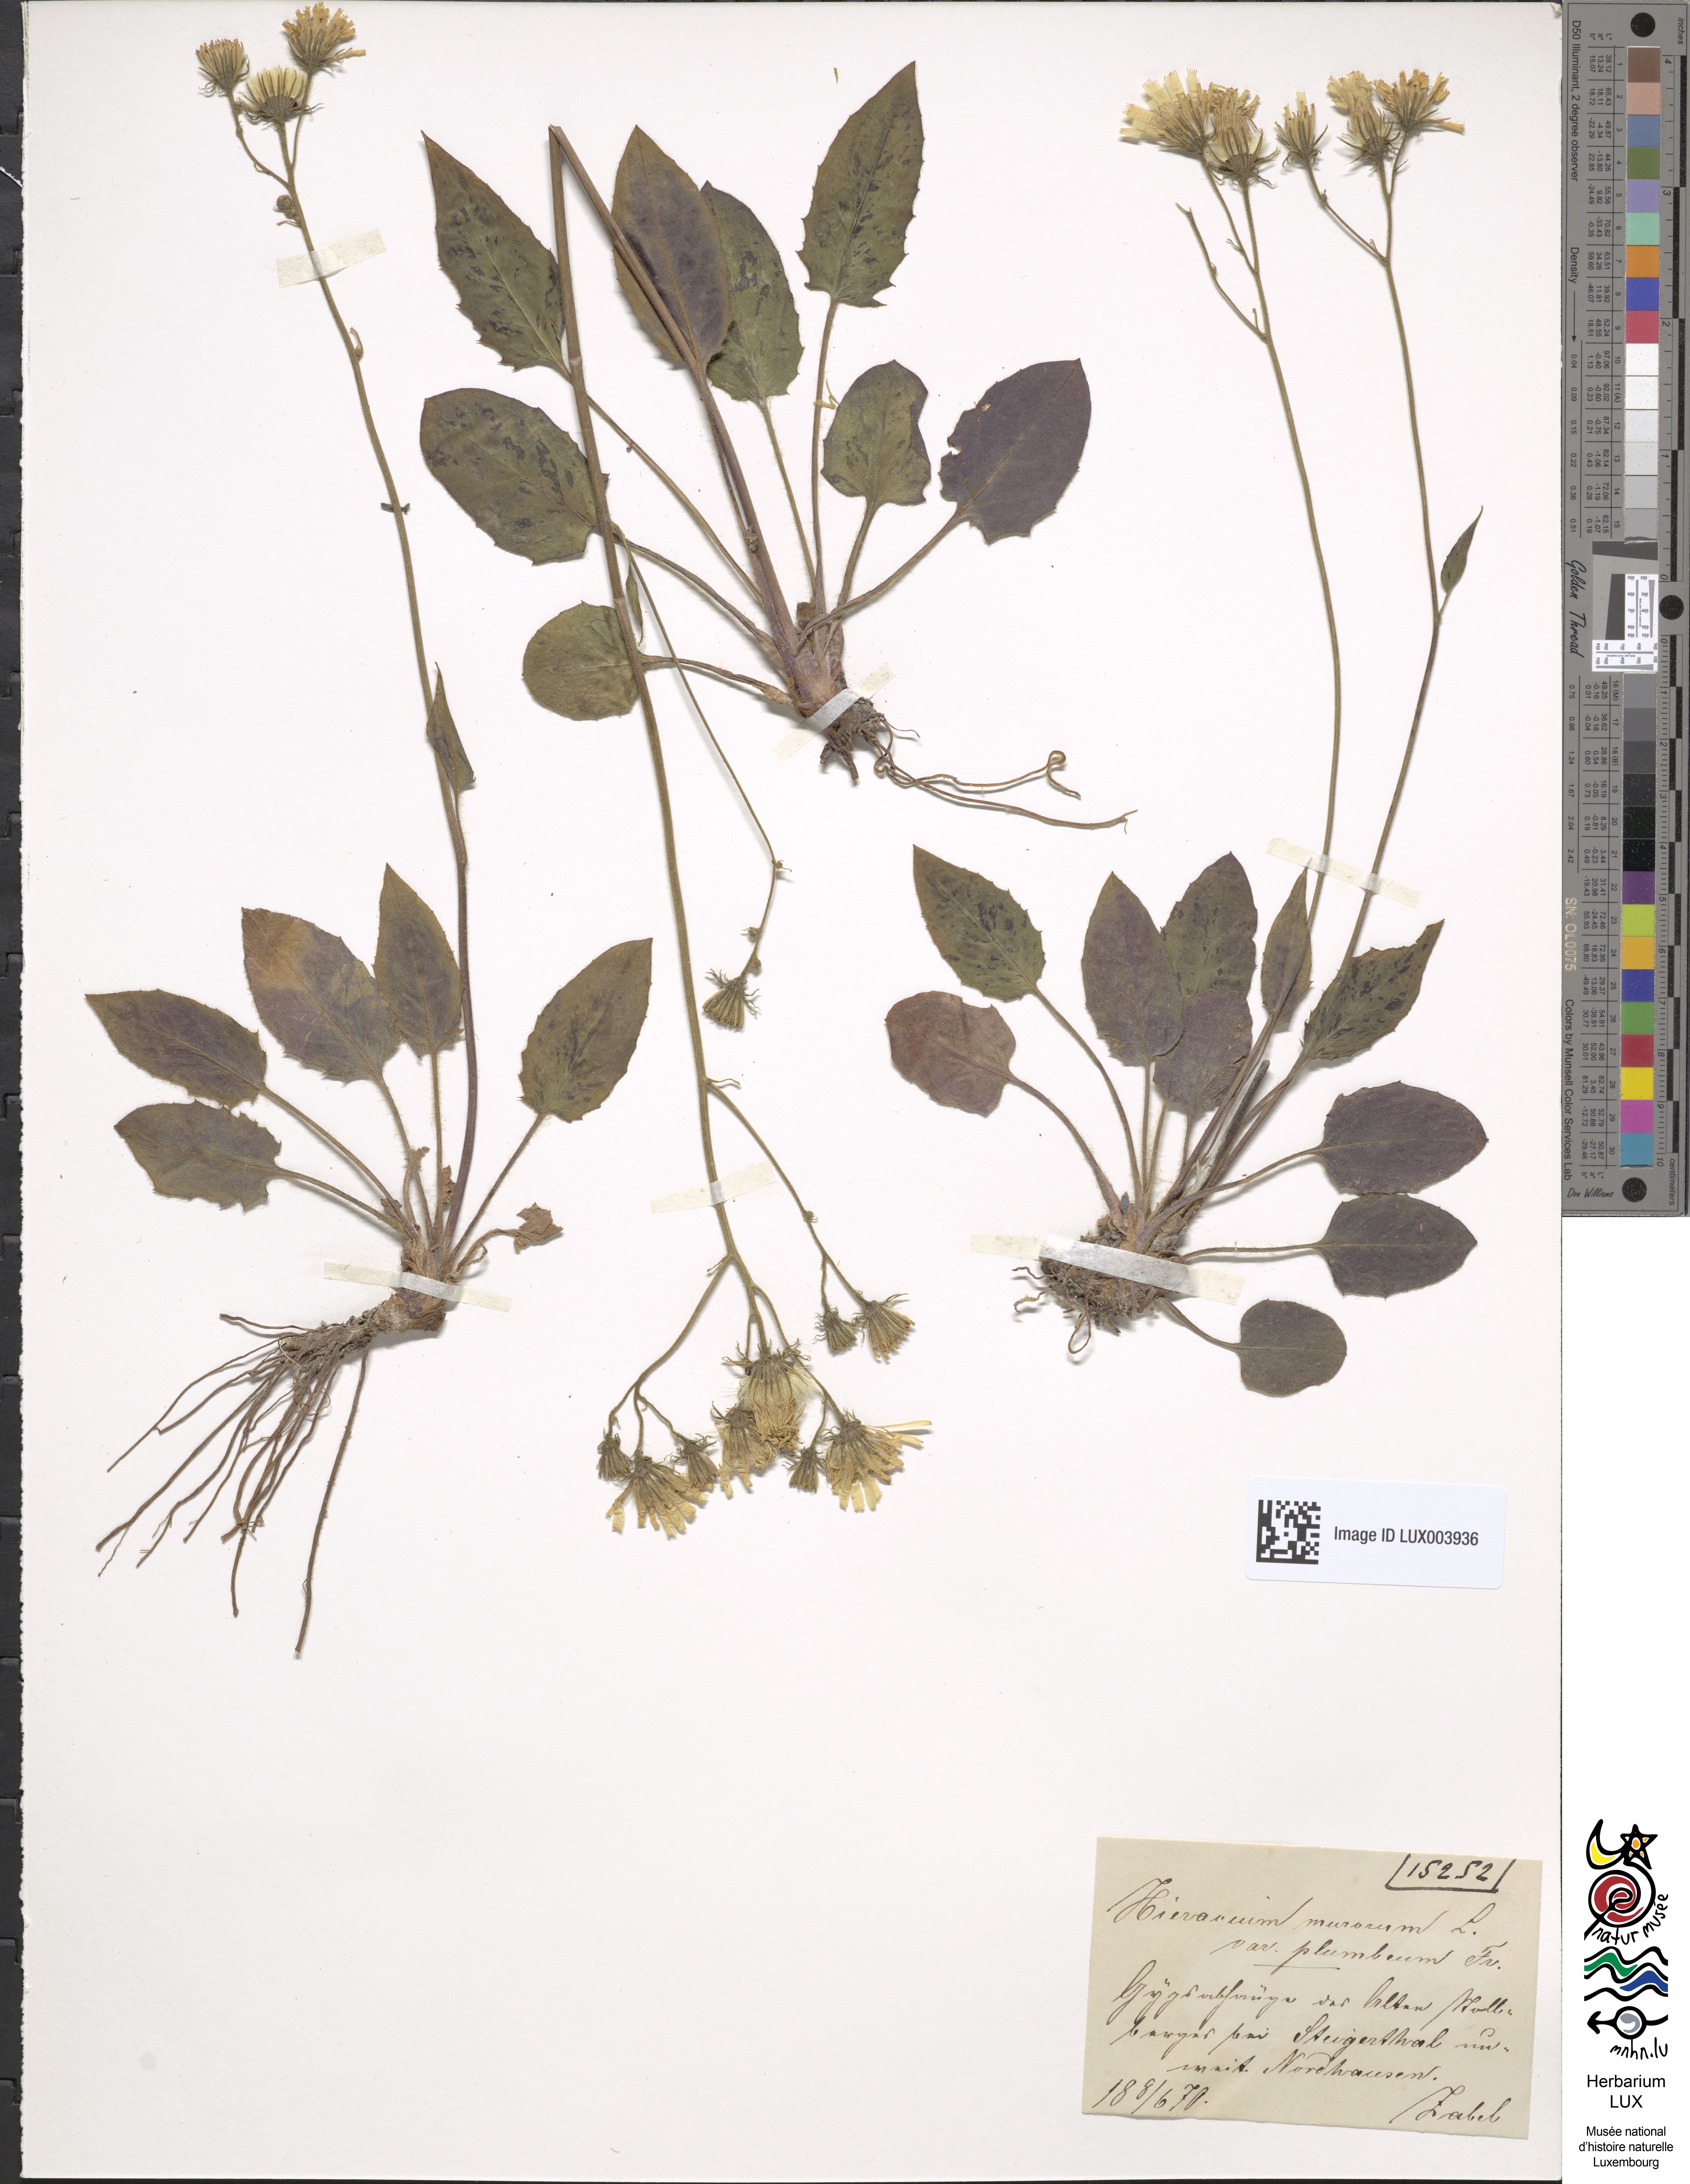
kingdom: Plantae
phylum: Tracheophyta
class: Magnoliopsida
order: Asterales
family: Asteraceae
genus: Hieracium
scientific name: Hieracium plumbeum
